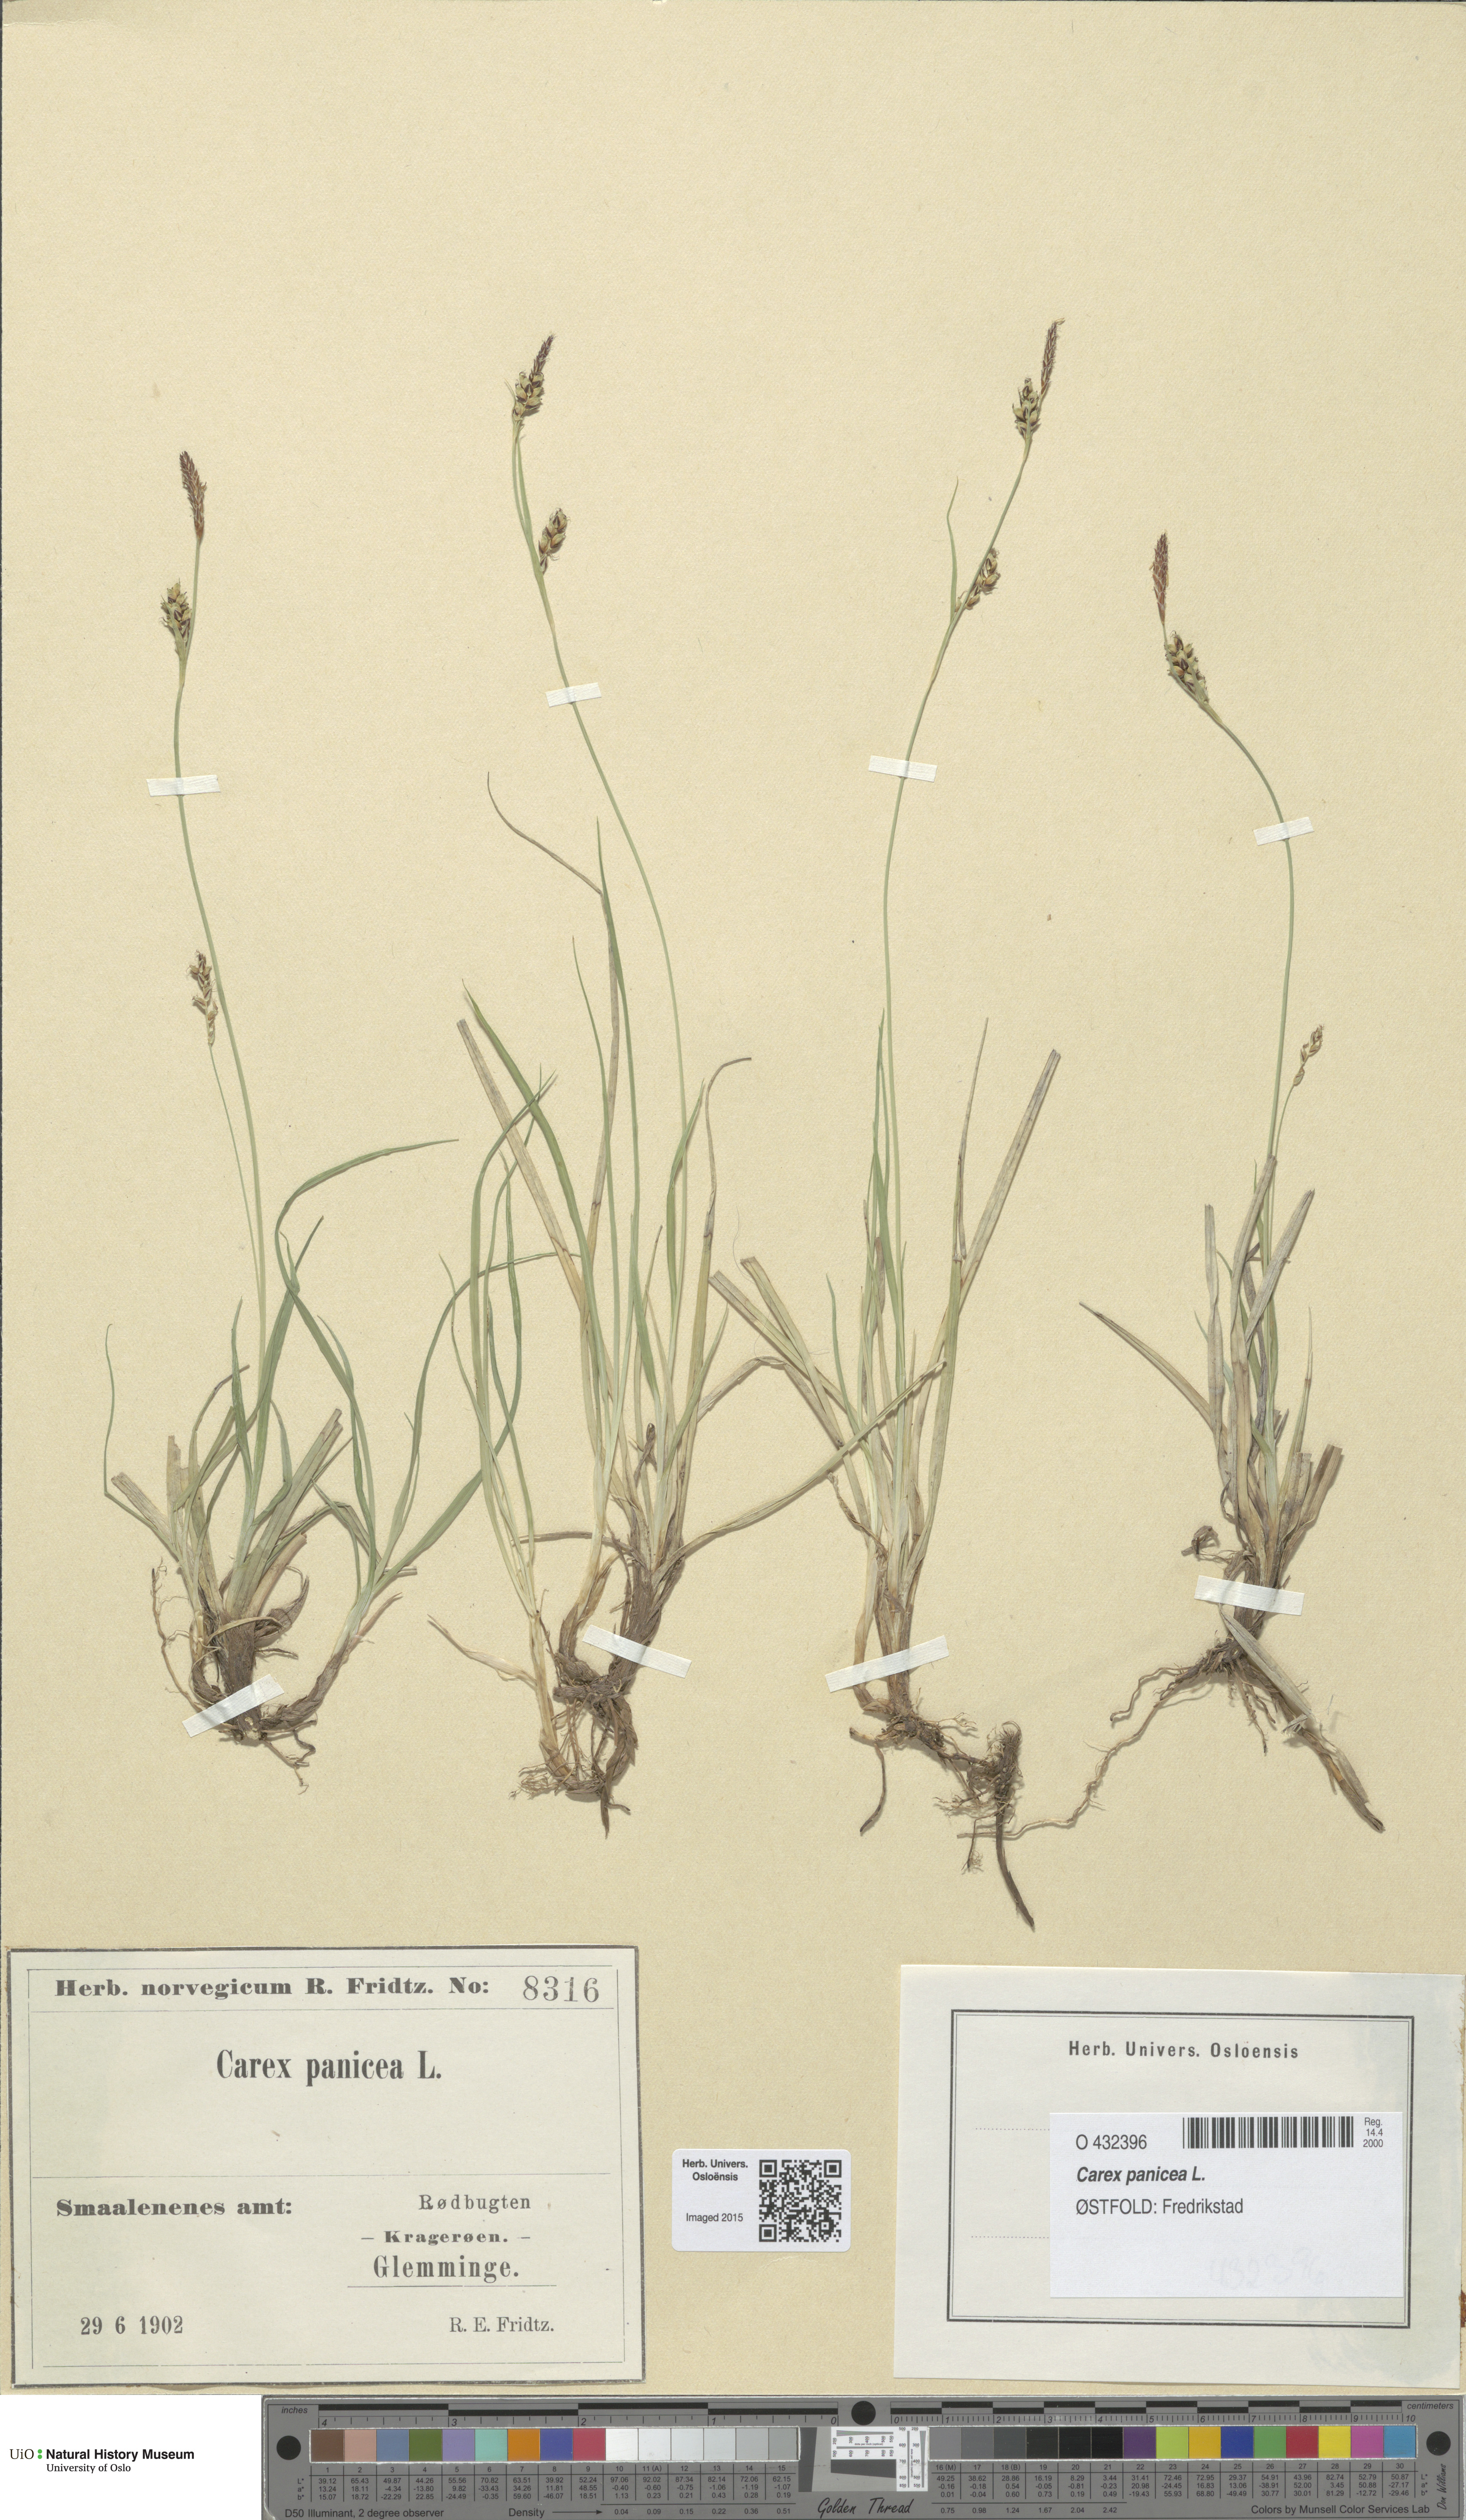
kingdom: Plantae
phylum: Tracheophyta
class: Liliopsida
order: Poales
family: Cyperaceae
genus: Carex
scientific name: Carex panicea
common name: Carnation sedge
